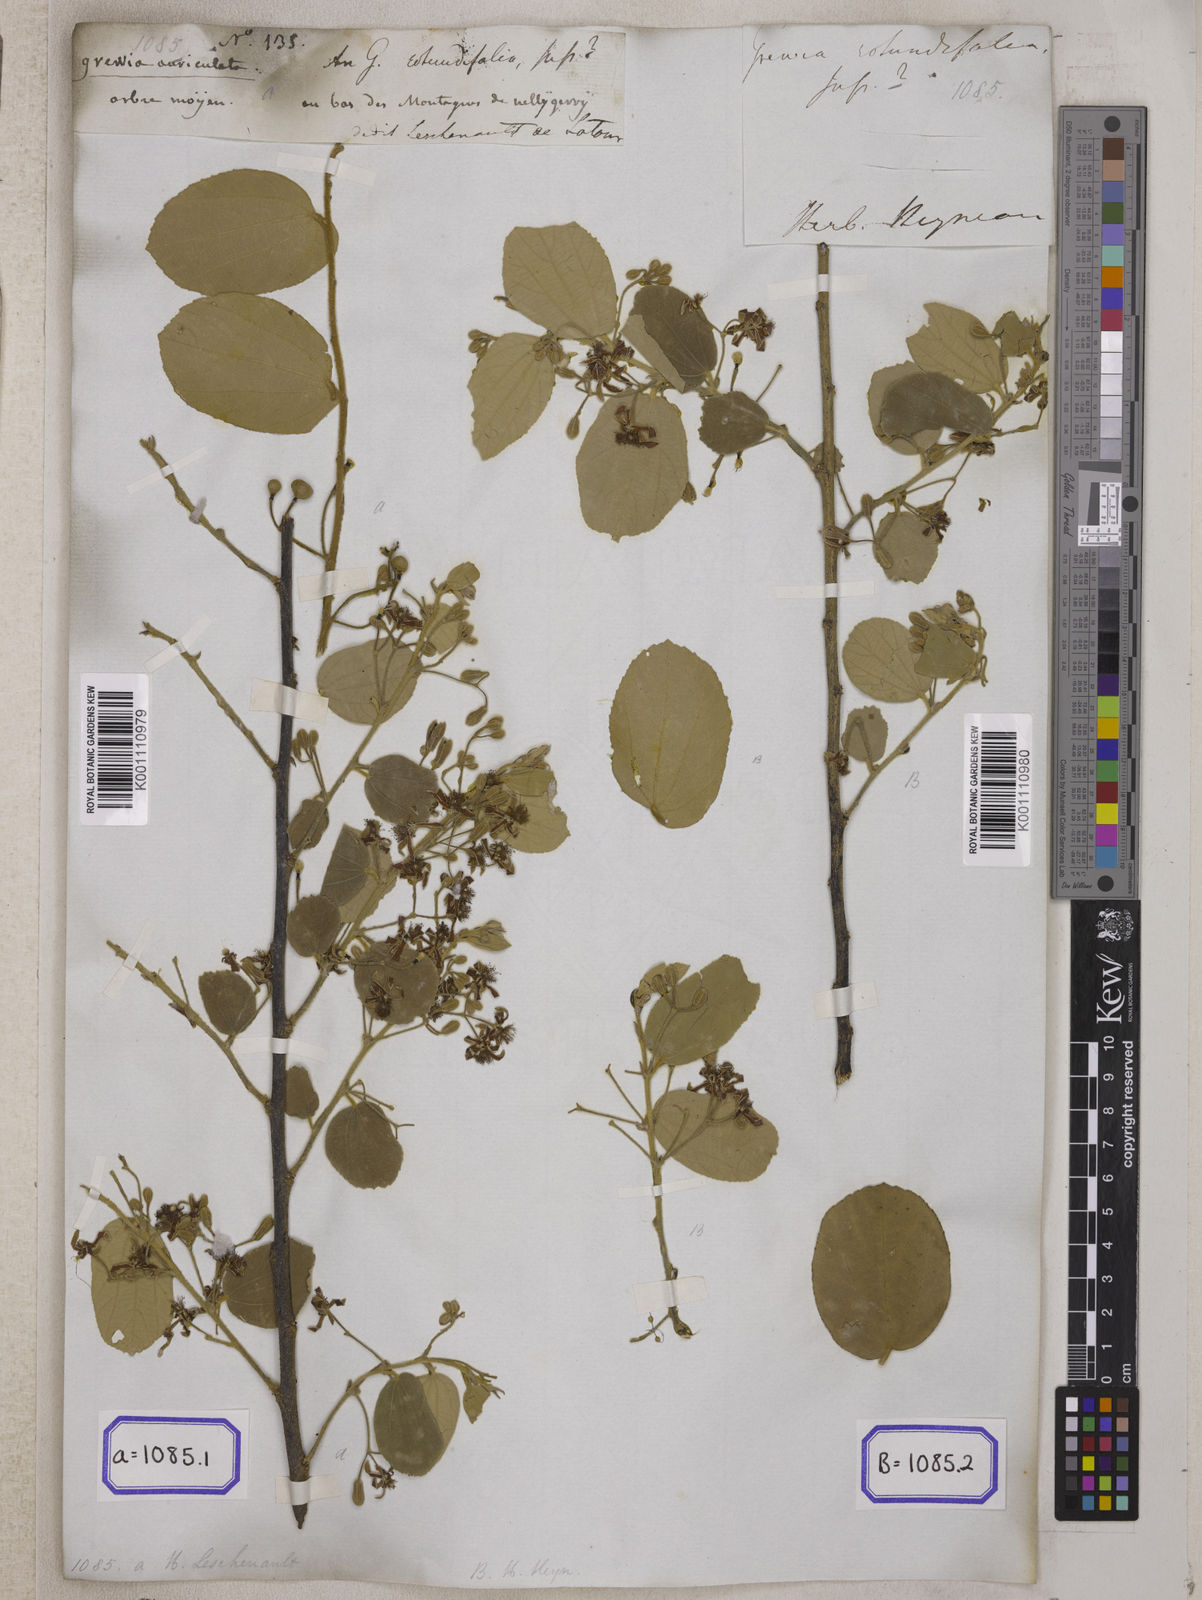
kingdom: Plantae
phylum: Tracheophyta
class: Magnoliopsida
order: Malvales
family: Malvaceae
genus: Grewia
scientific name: Grewia orbiculata
